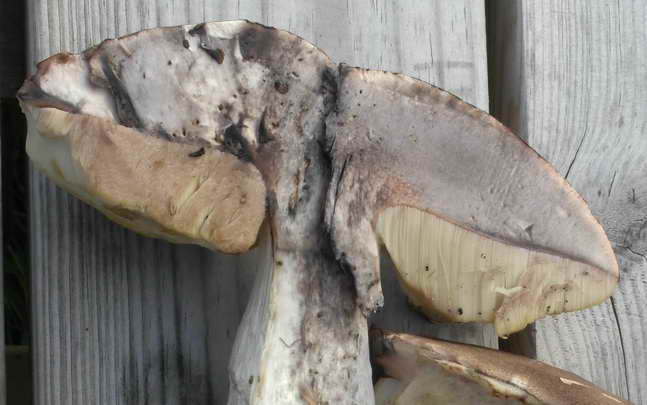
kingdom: Fungi
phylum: Basidiomycota
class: Agaricomycetes
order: Boletales
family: Boletaceae
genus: Leccinum
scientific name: Leccinum duriusculum
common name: poppel-skælrørhat
